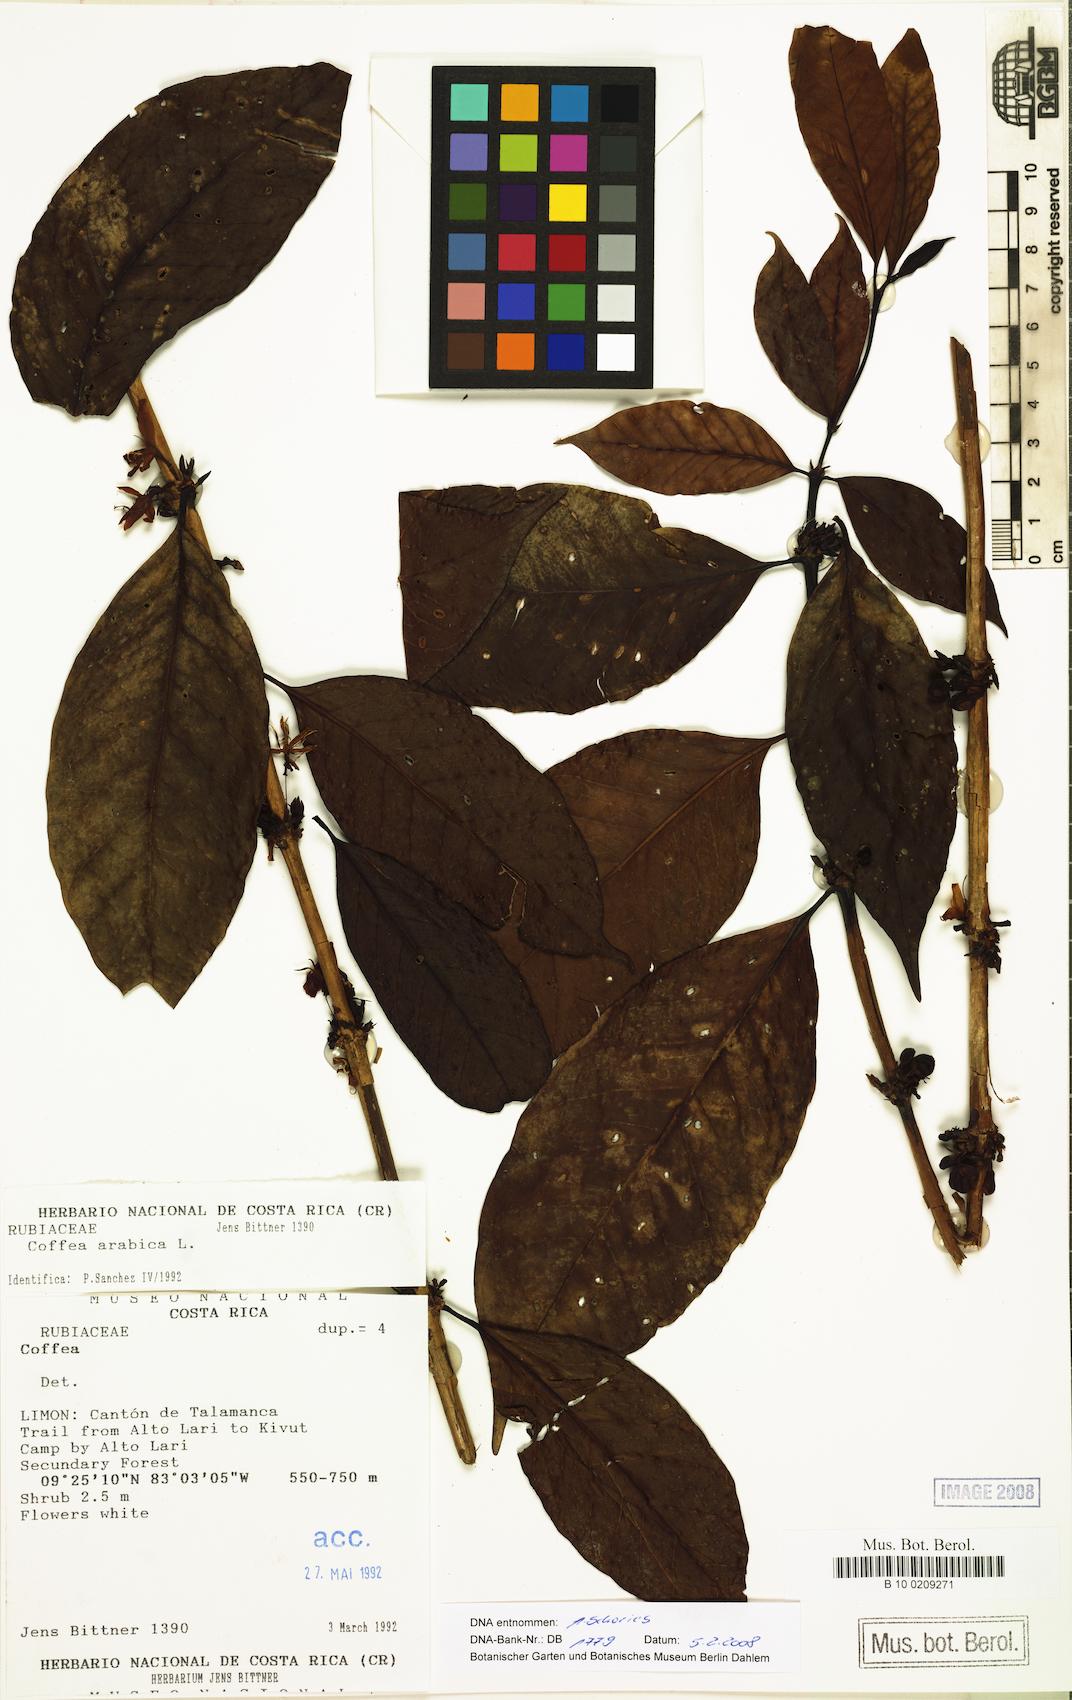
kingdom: Plantae
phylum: Tracheophyta
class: Magnoliopsida
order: Gentianales
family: Rubiaceae
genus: Coffea
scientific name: Coffea arabica
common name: Coffee
